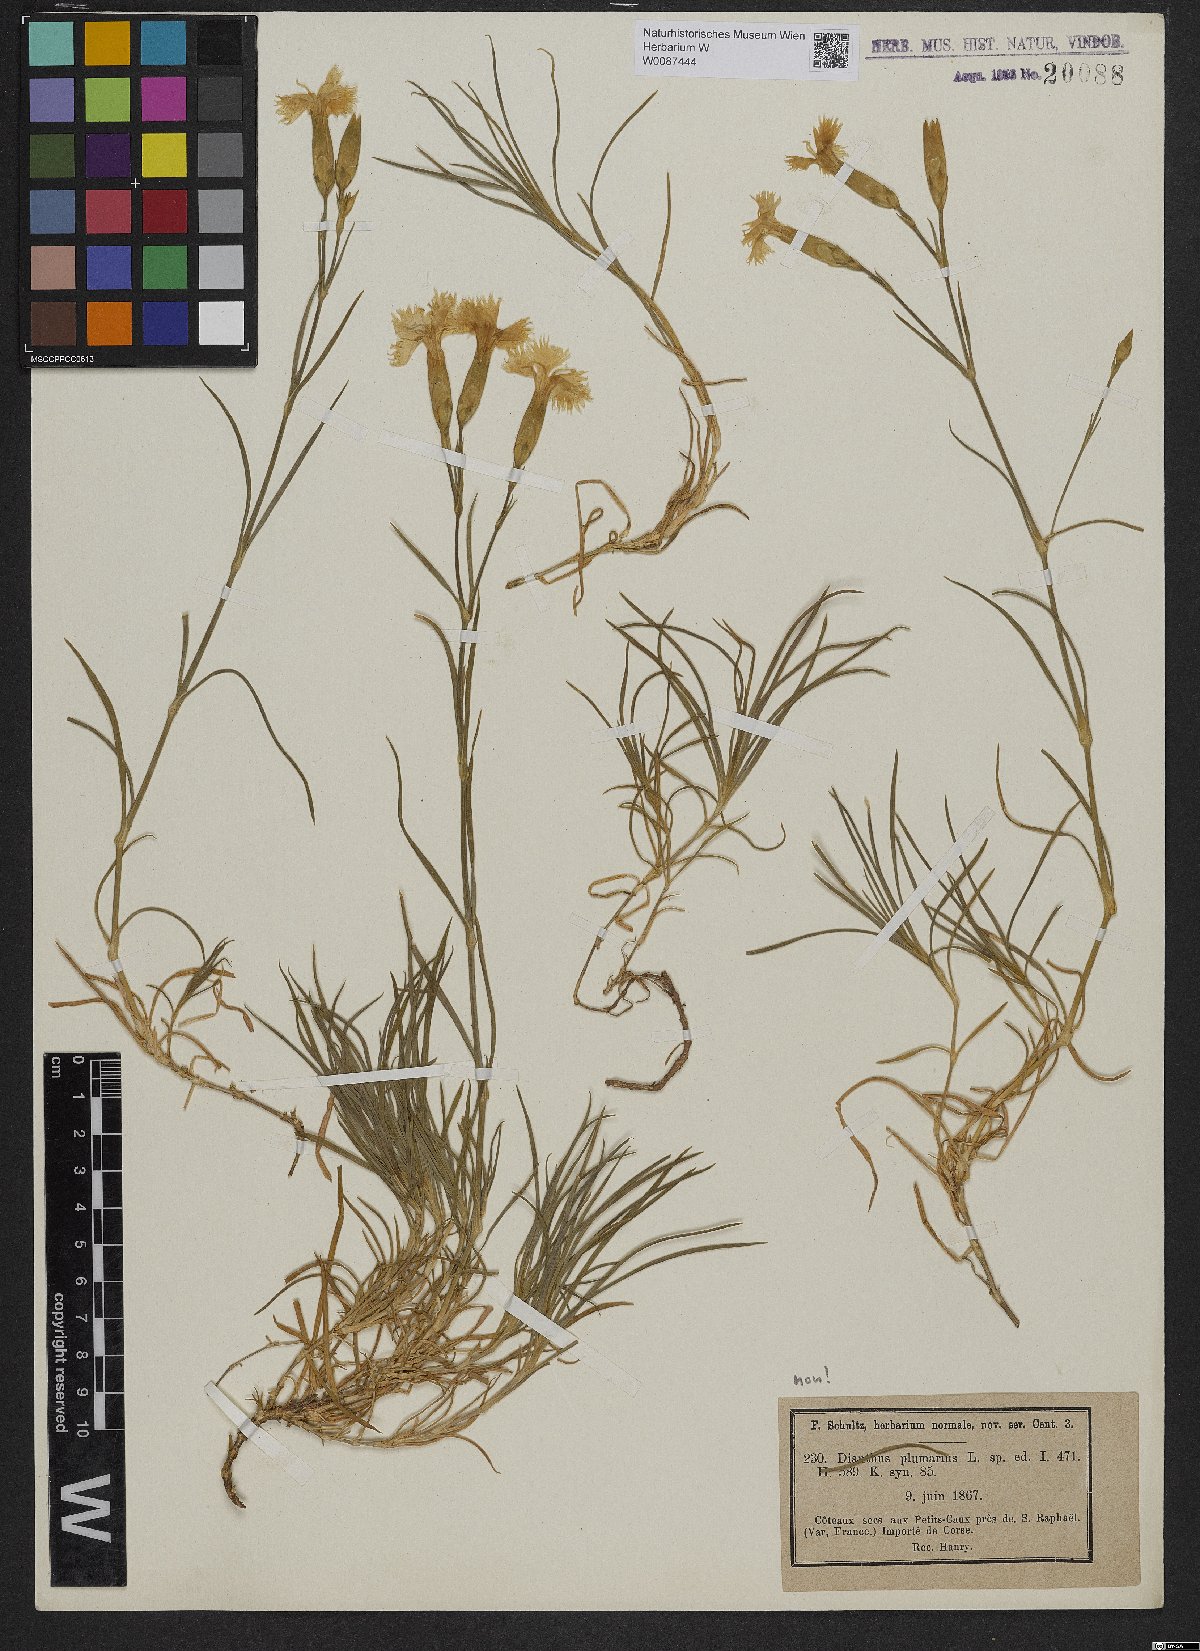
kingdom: Plantae
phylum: Tracheophyta
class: Magnoliopsida
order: Caryophyllales
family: Caryophyllaceae
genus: Dianthus
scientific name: Dianthus caryophyllus
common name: Clove pink
